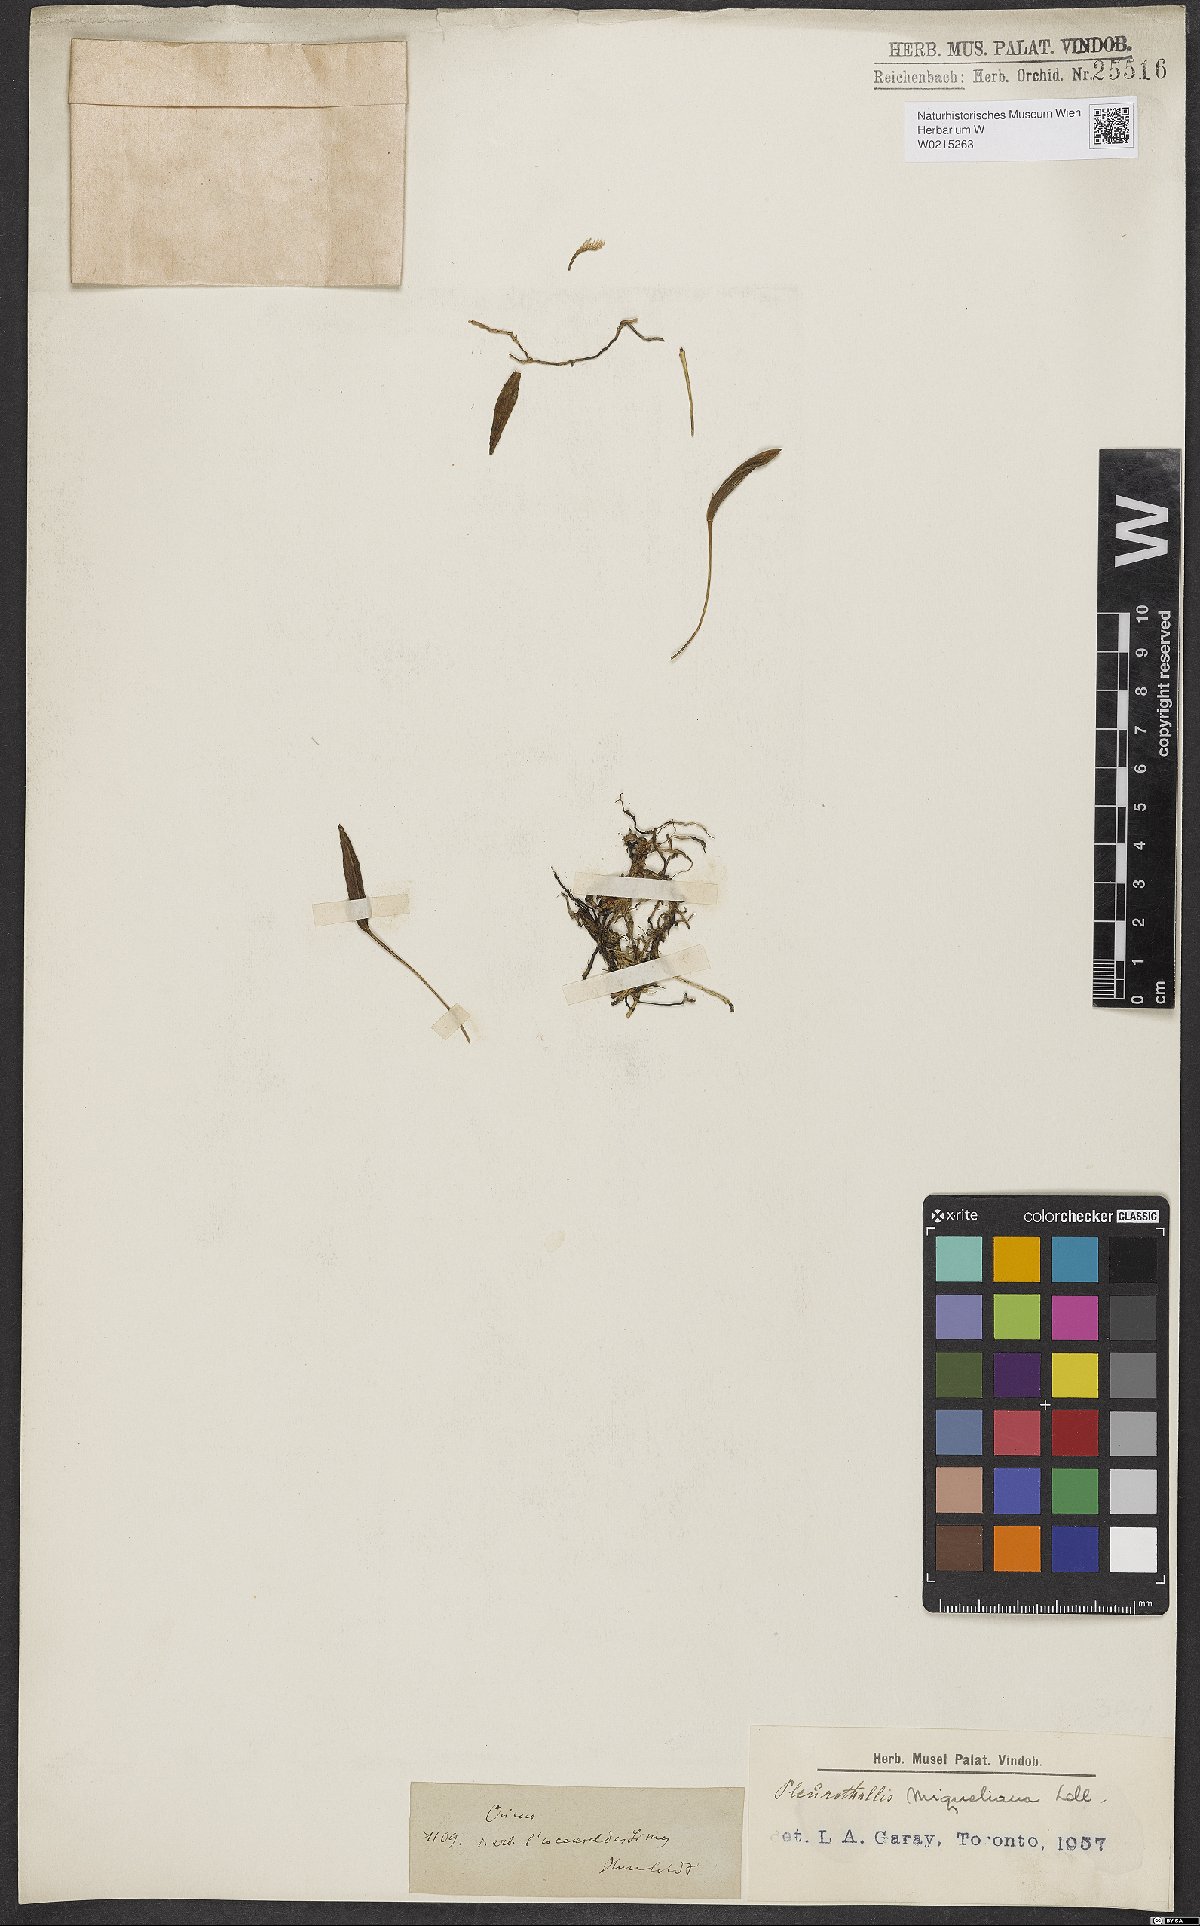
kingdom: Plantae
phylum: Tracheophyta
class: Liliopsida
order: Asparagales
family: Orchidaceae
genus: Pleurothallis
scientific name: Pleurothallis
